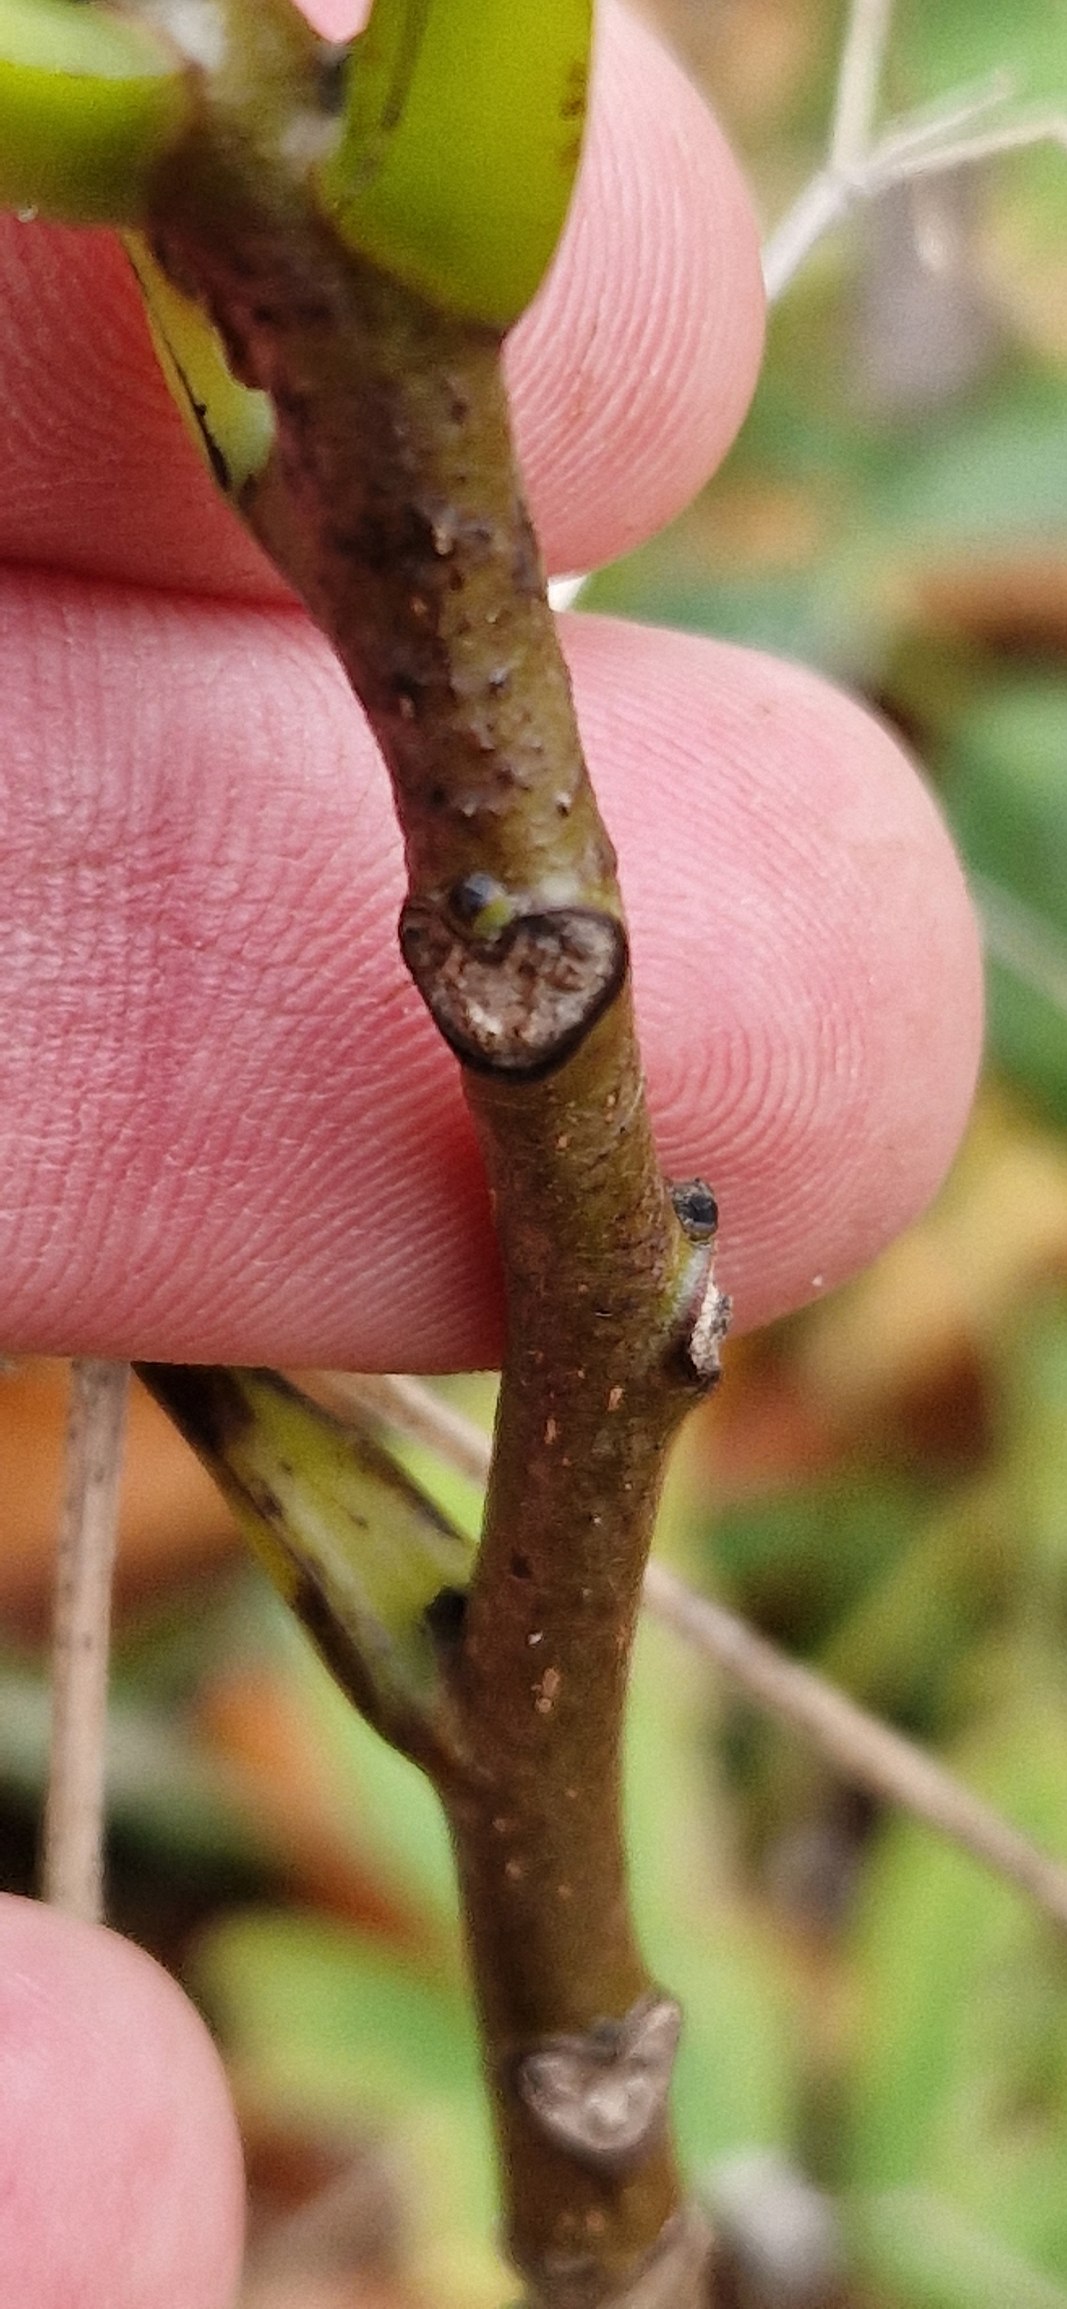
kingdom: Plantae
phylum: Tracheophyta
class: Magnoliopsida
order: Fagales
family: Juglandaceae
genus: Juglans
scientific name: Juglans regia
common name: Almindelig valnød
